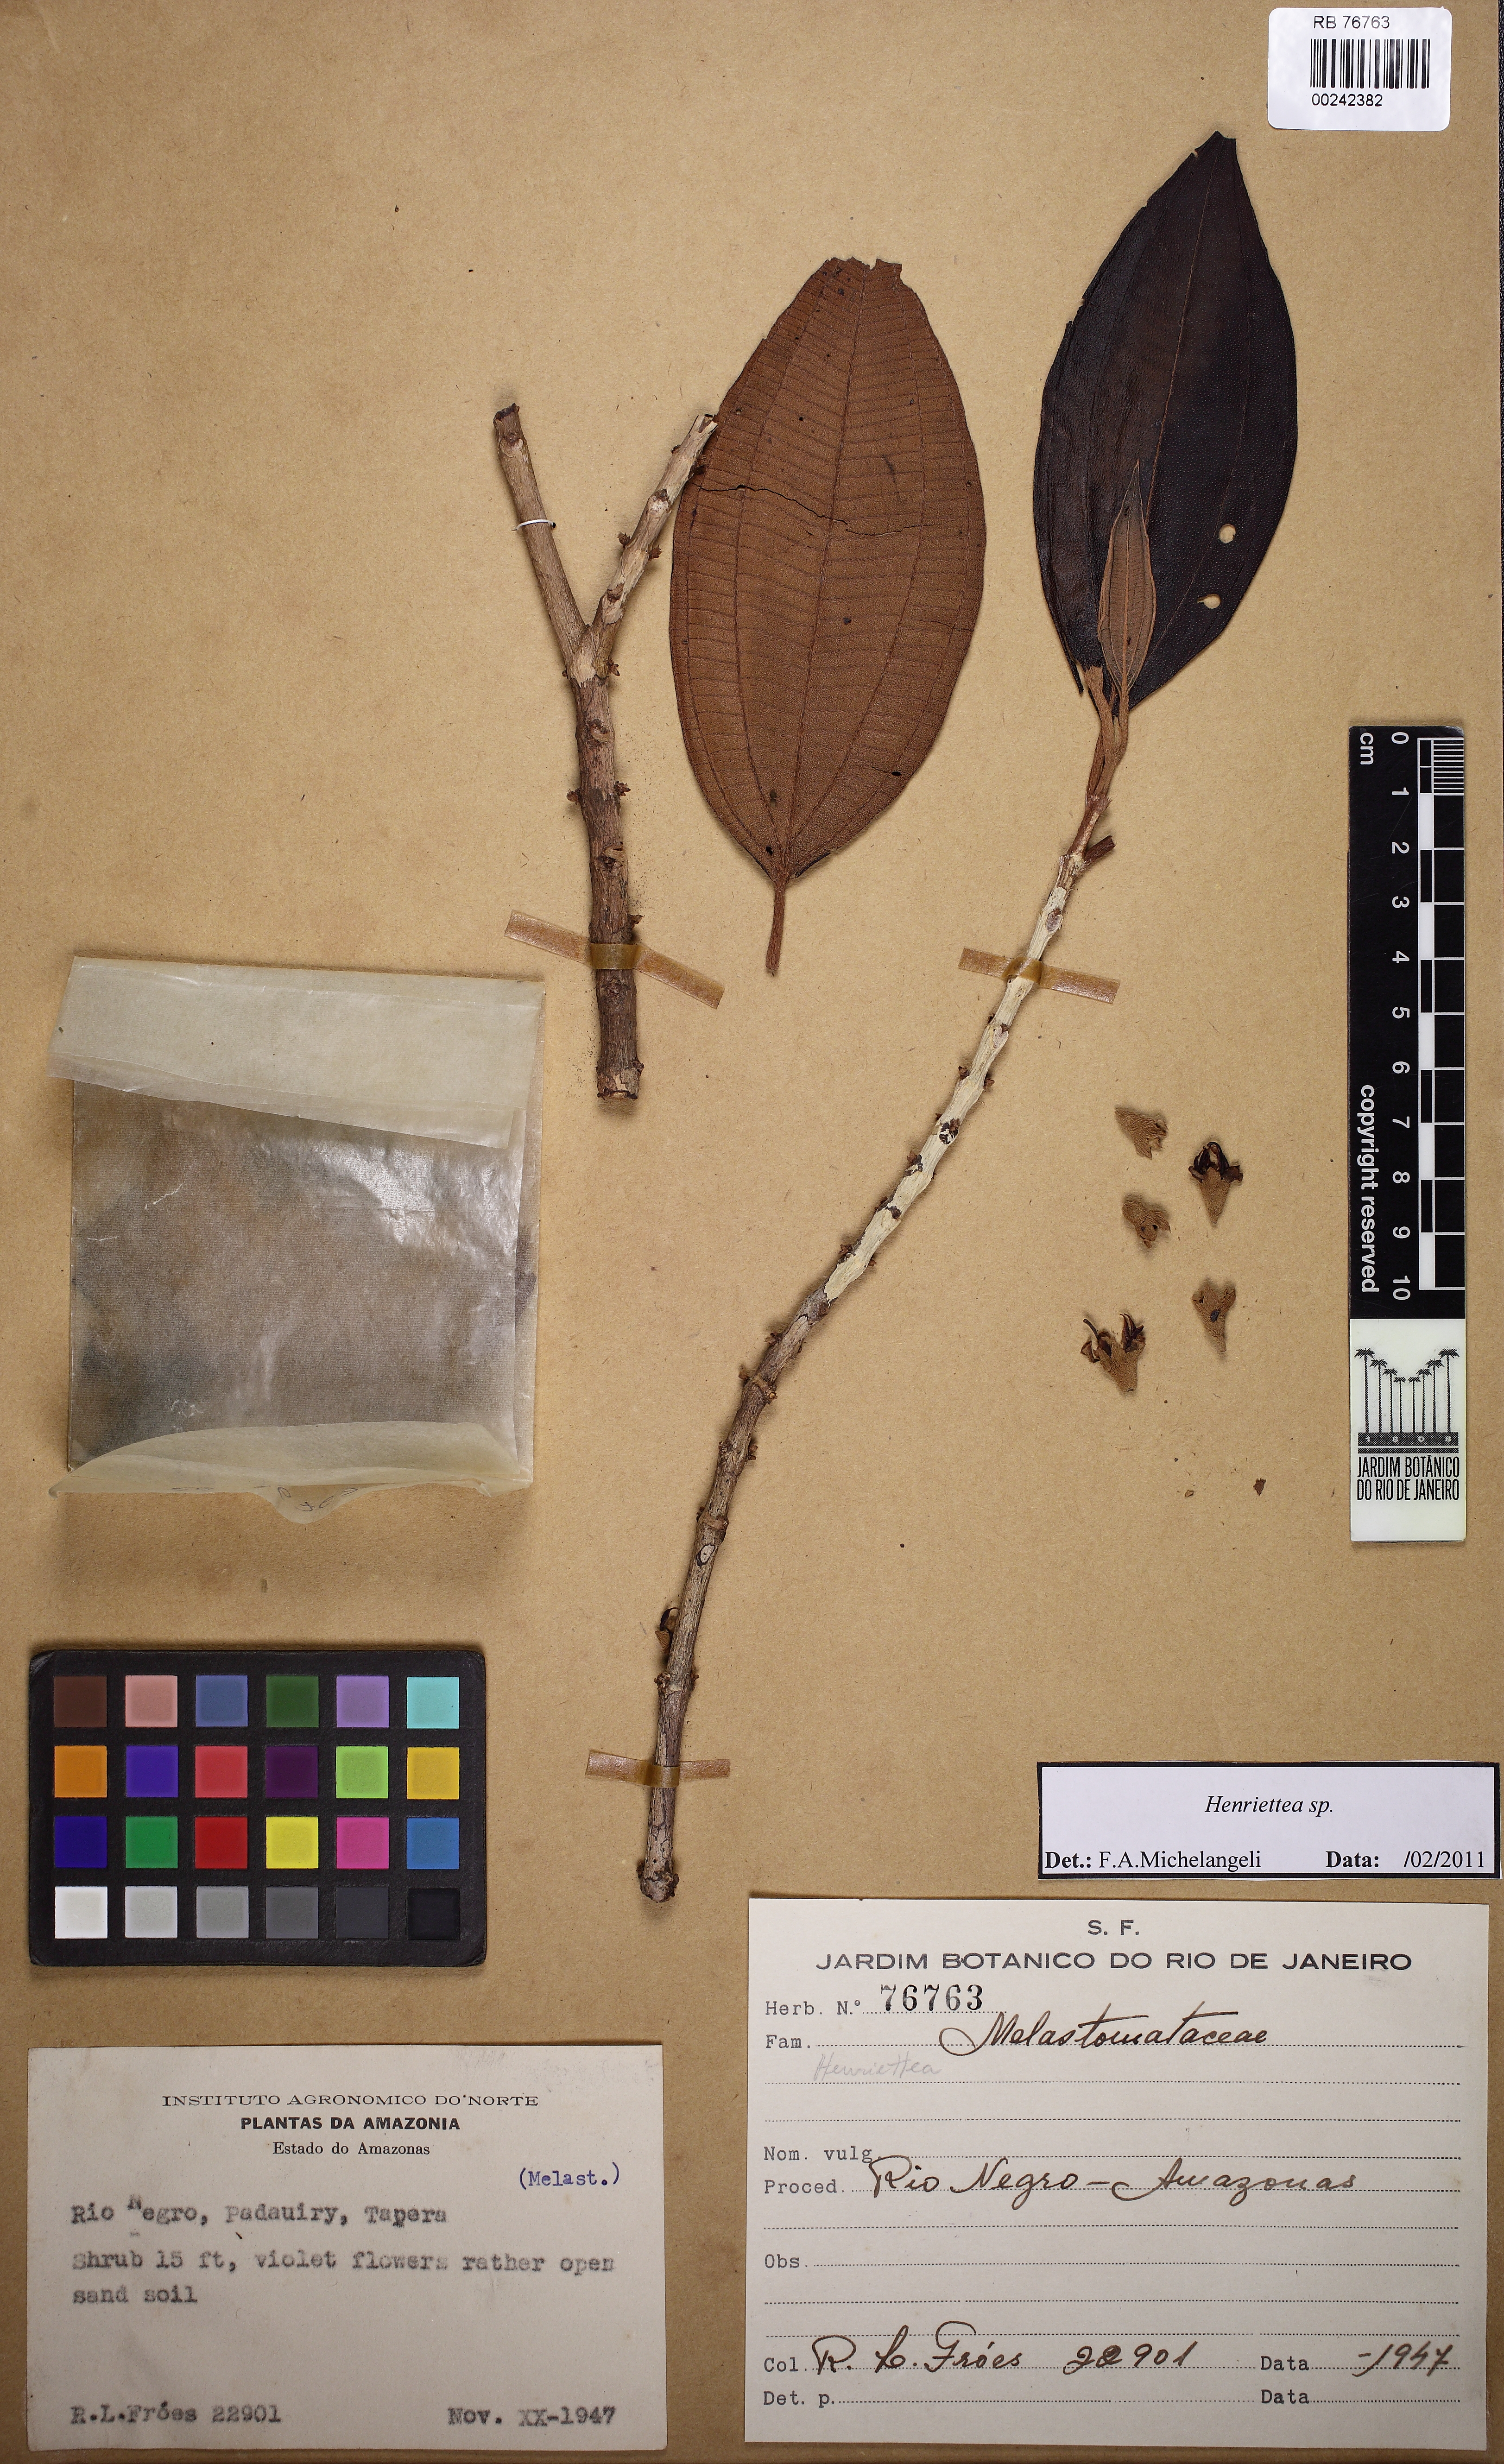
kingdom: Plantae
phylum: Tracheophyta
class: Magnoliopsida
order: Myrtales
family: Melastomataceae
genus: Henriettea
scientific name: Henriettea stellaris
